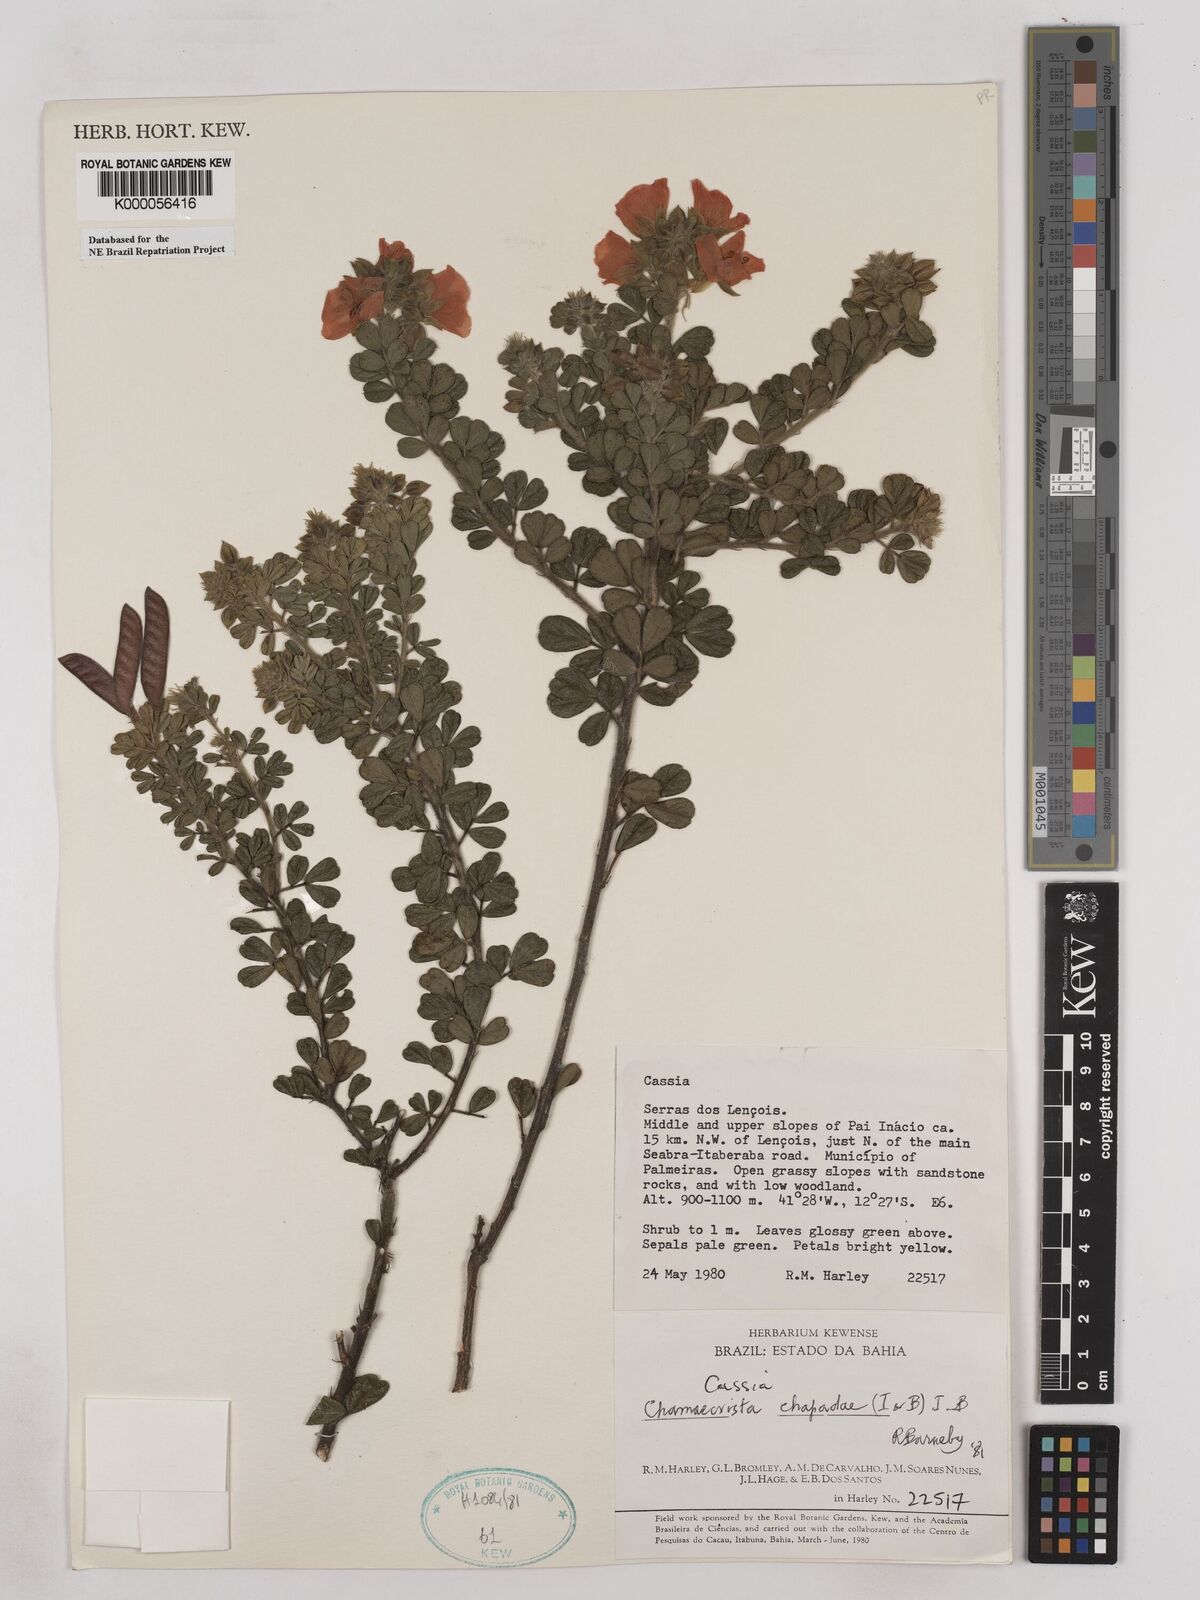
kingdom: Plantae
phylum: Tracheophyta
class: Magnoliopsida
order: Fabales
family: Fabaceae
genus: Chamaecrista
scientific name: Chamaecrista chapadae
